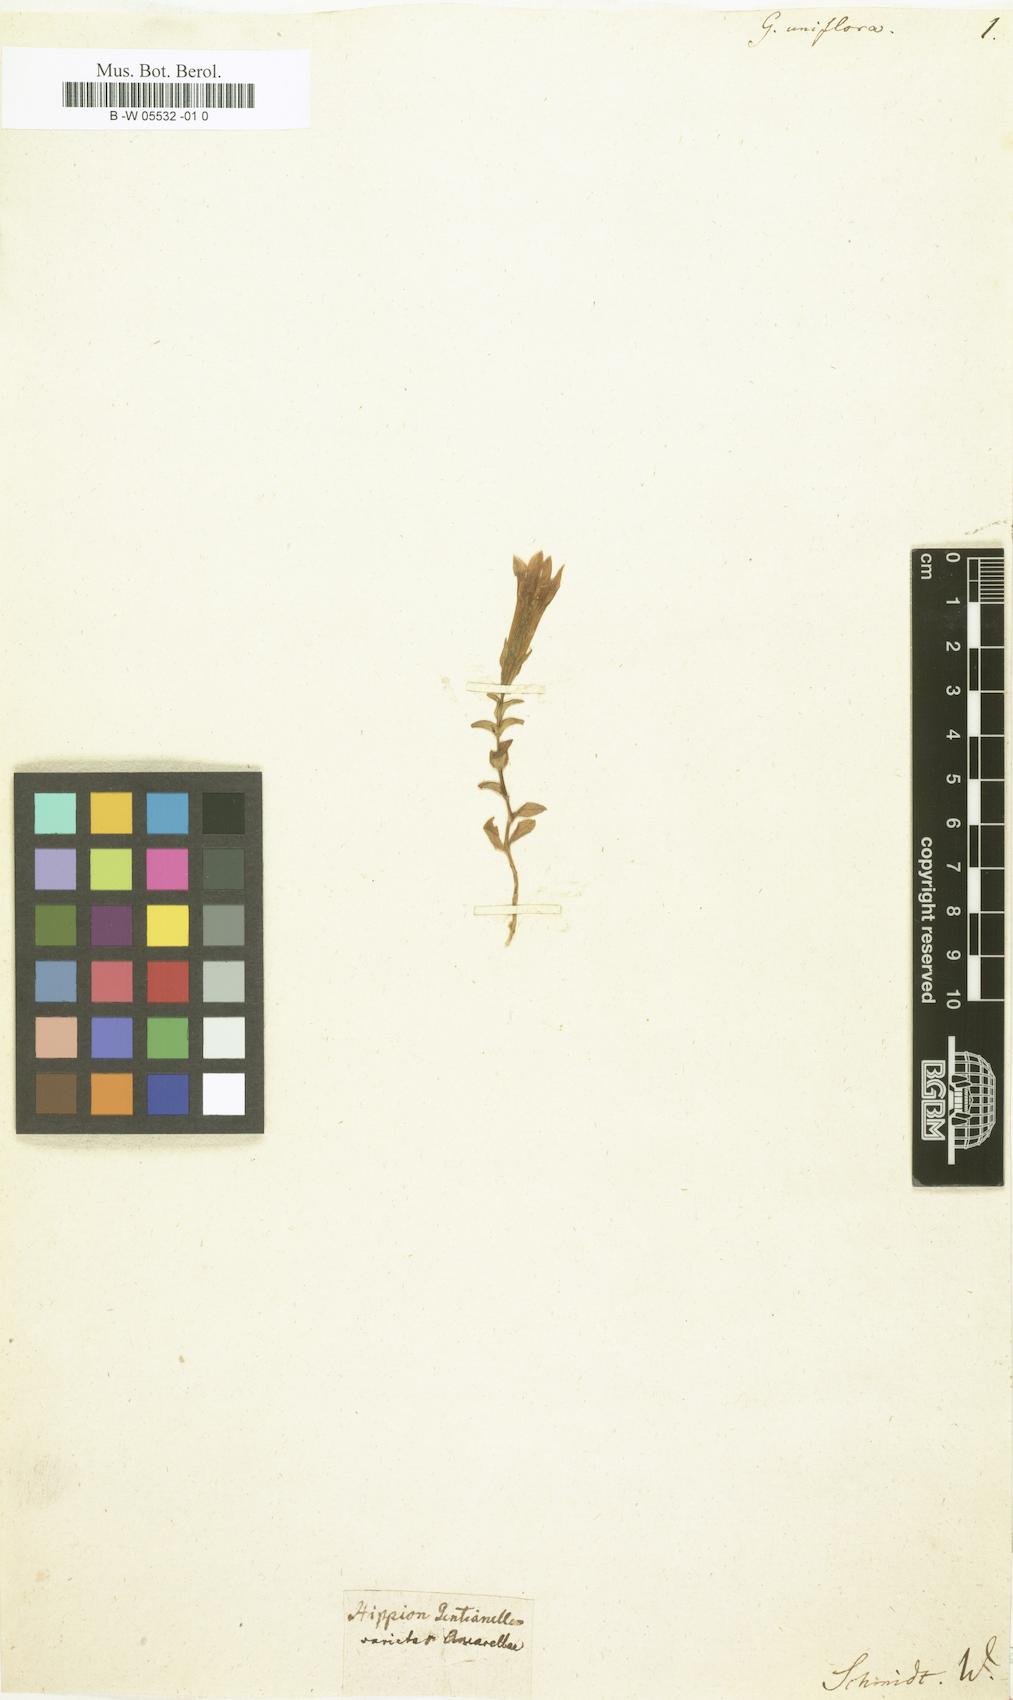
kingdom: Plantae
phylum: Tracheophyta
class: Magnoliopsida
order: Gentianales
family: Gentianaceae
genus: Gentianella
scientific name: Gentianella germanica
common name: Chiltern-gentian
